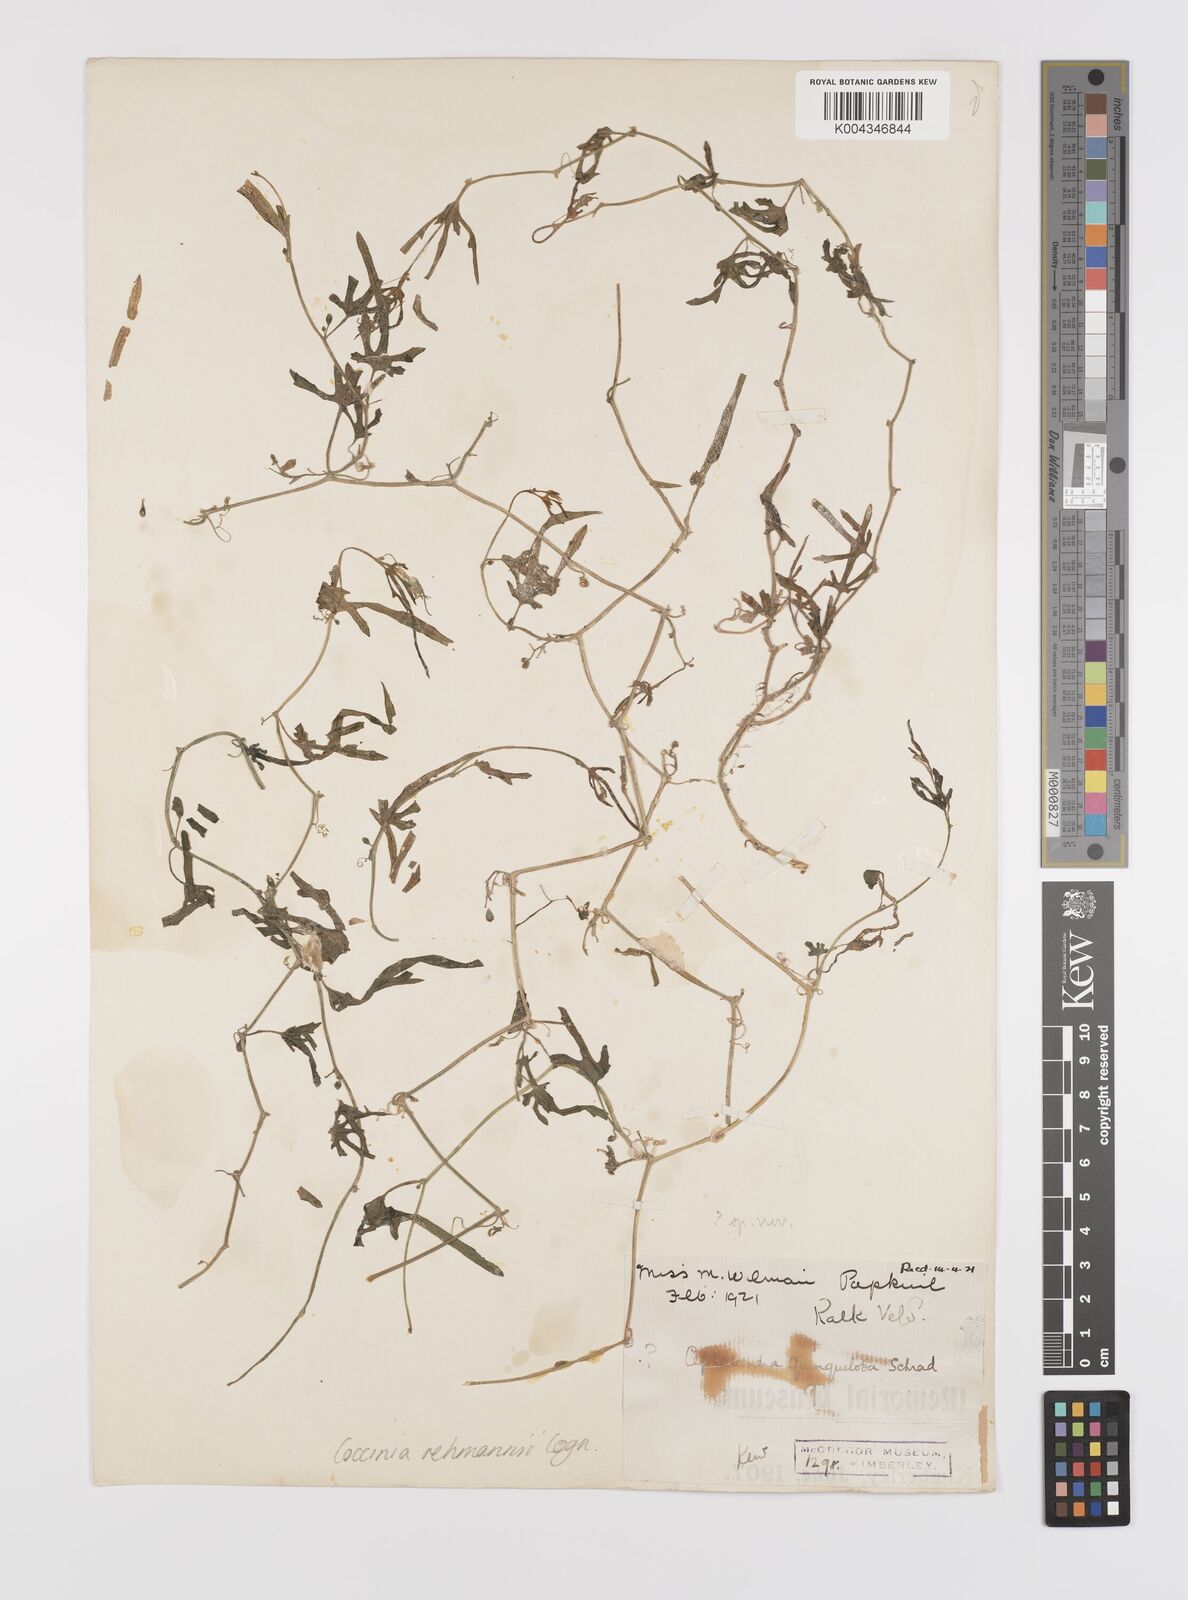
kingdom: Plantae
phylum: Tracheophyta
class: Magnoliopsida
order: Cucurbitales
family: Cucurbitaceae
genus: Coccinia
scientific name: Coccinia rehmannii
